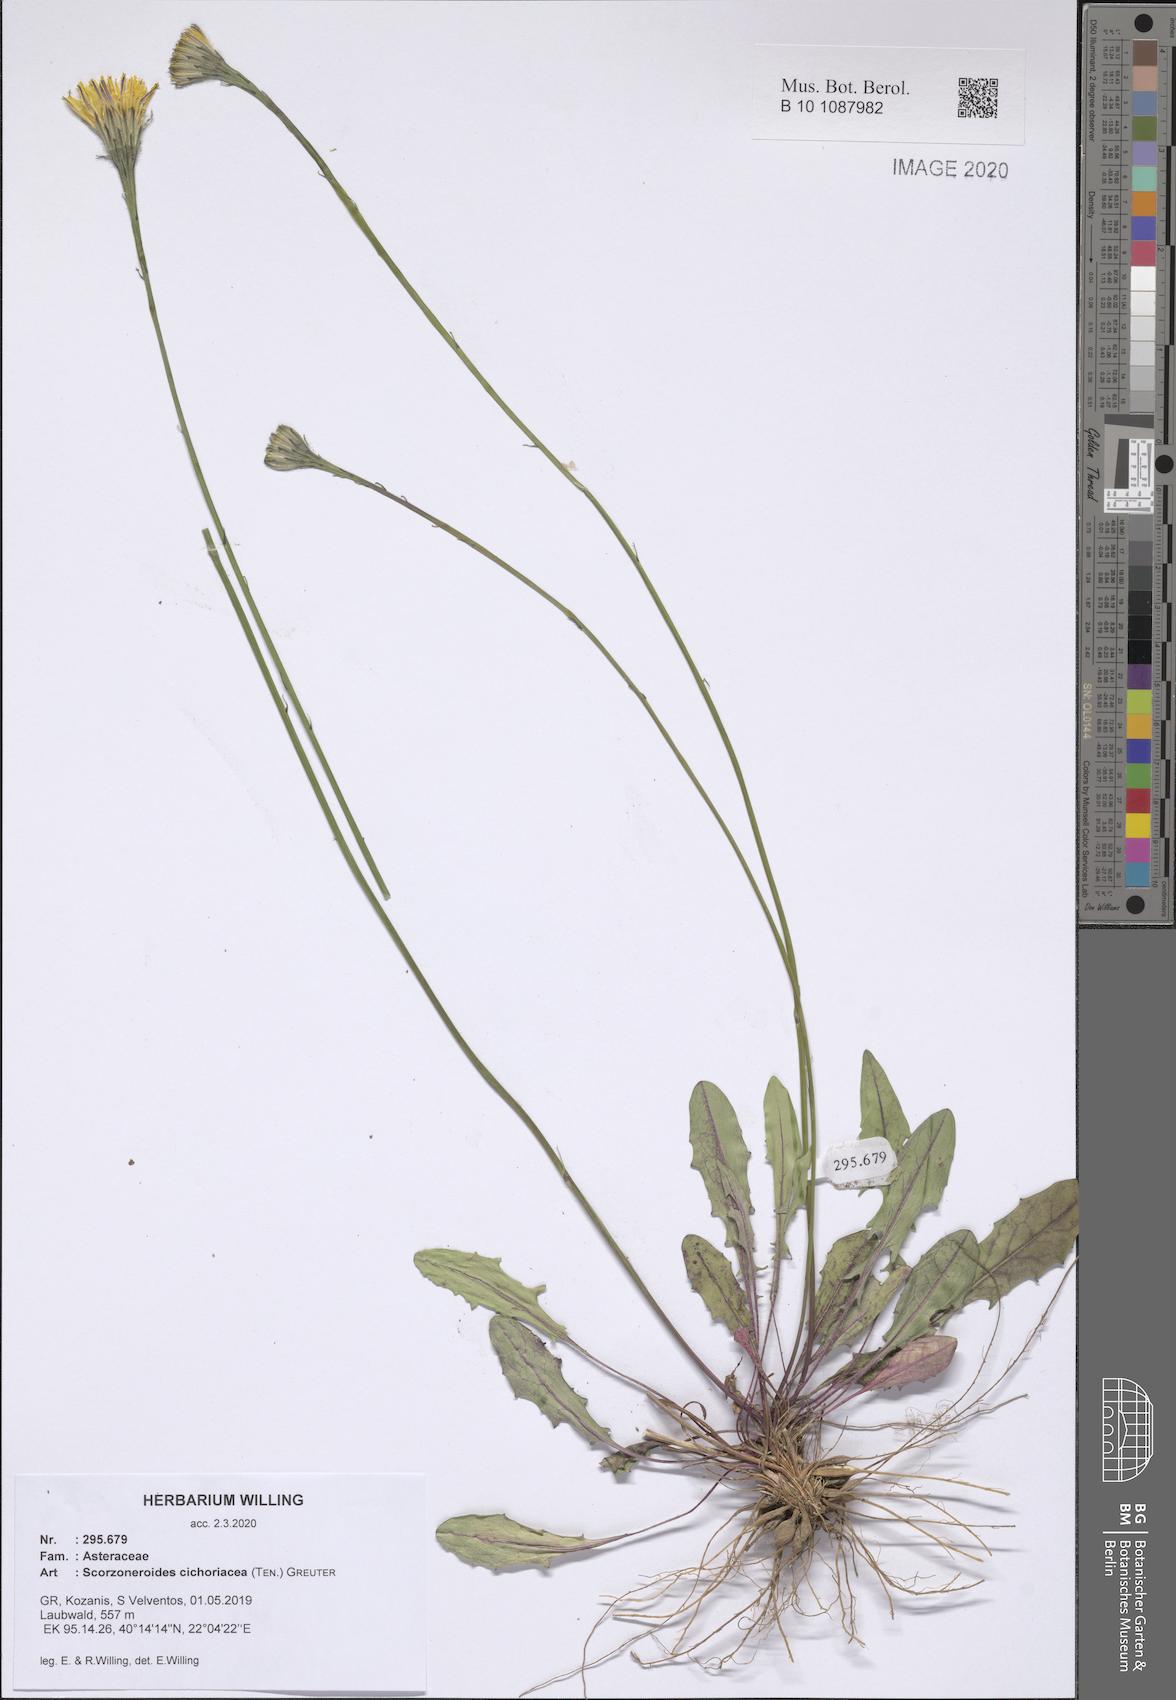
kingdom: Plantae
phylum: Tracheophyta
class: Magnoliopsida
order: Asterales
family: Asteraceae
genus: Scorzoneroides
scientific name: Scorzoneroides cichoriacea
